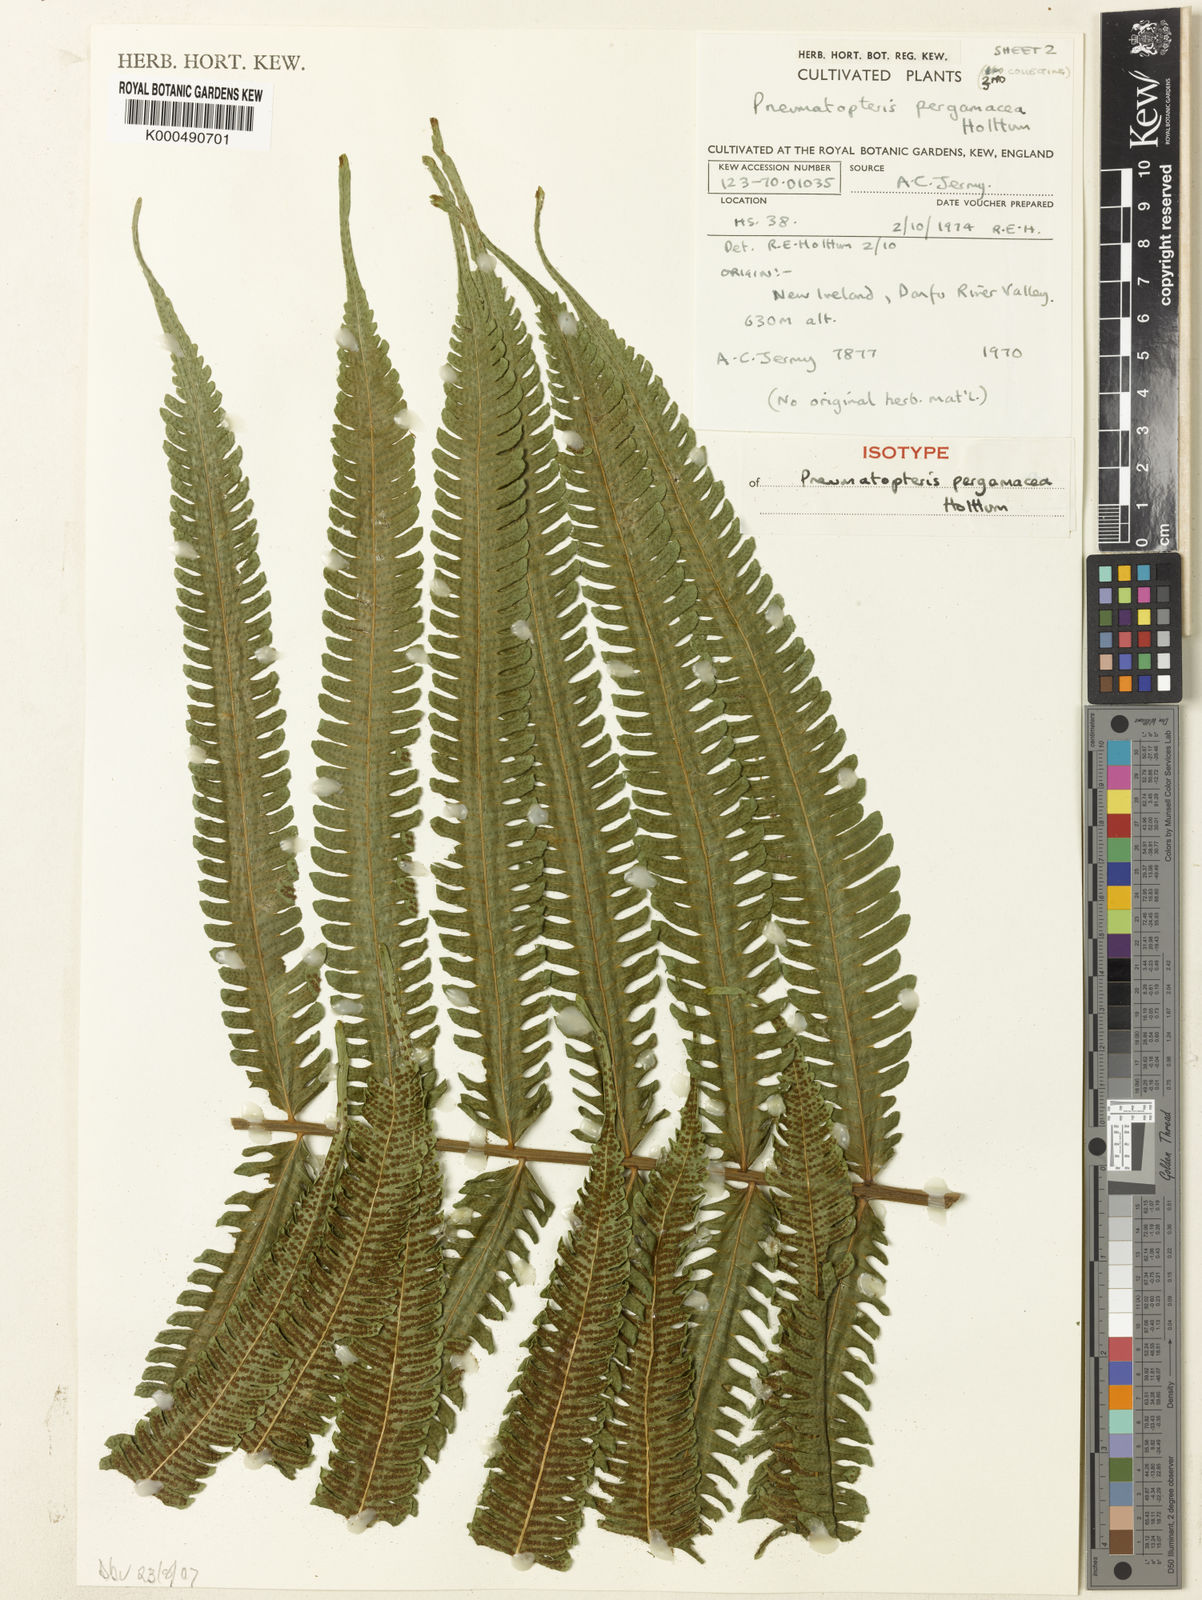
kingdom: Plantae
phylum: Tracheophyta
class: Polypodiopsida
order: Polypodiales
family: Thelypteridaceae
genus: Reholttumia
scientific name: Reholttumia pergamacea
